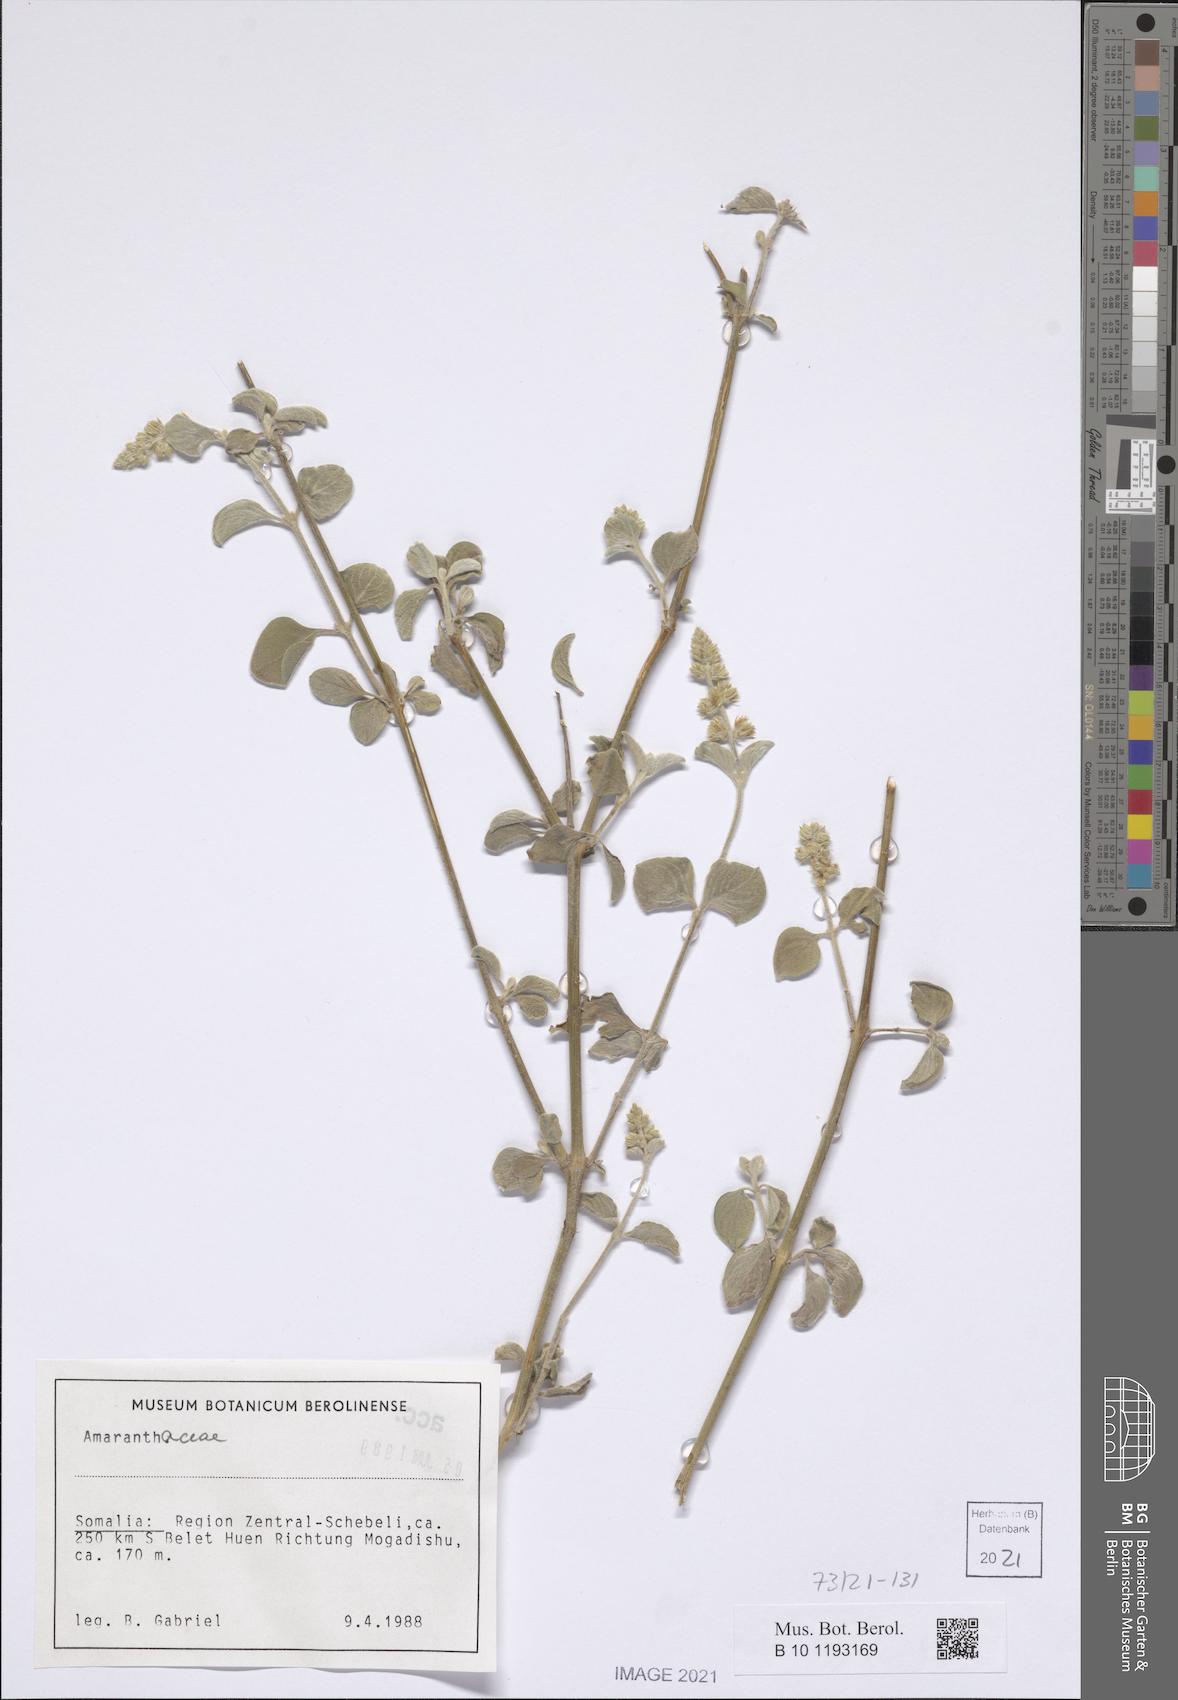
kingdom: Plantae
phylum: Tracheophyta
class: Magnoliopsida
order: Caryophyllales
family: Amaranthaceae
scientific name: Amaranthaceae
